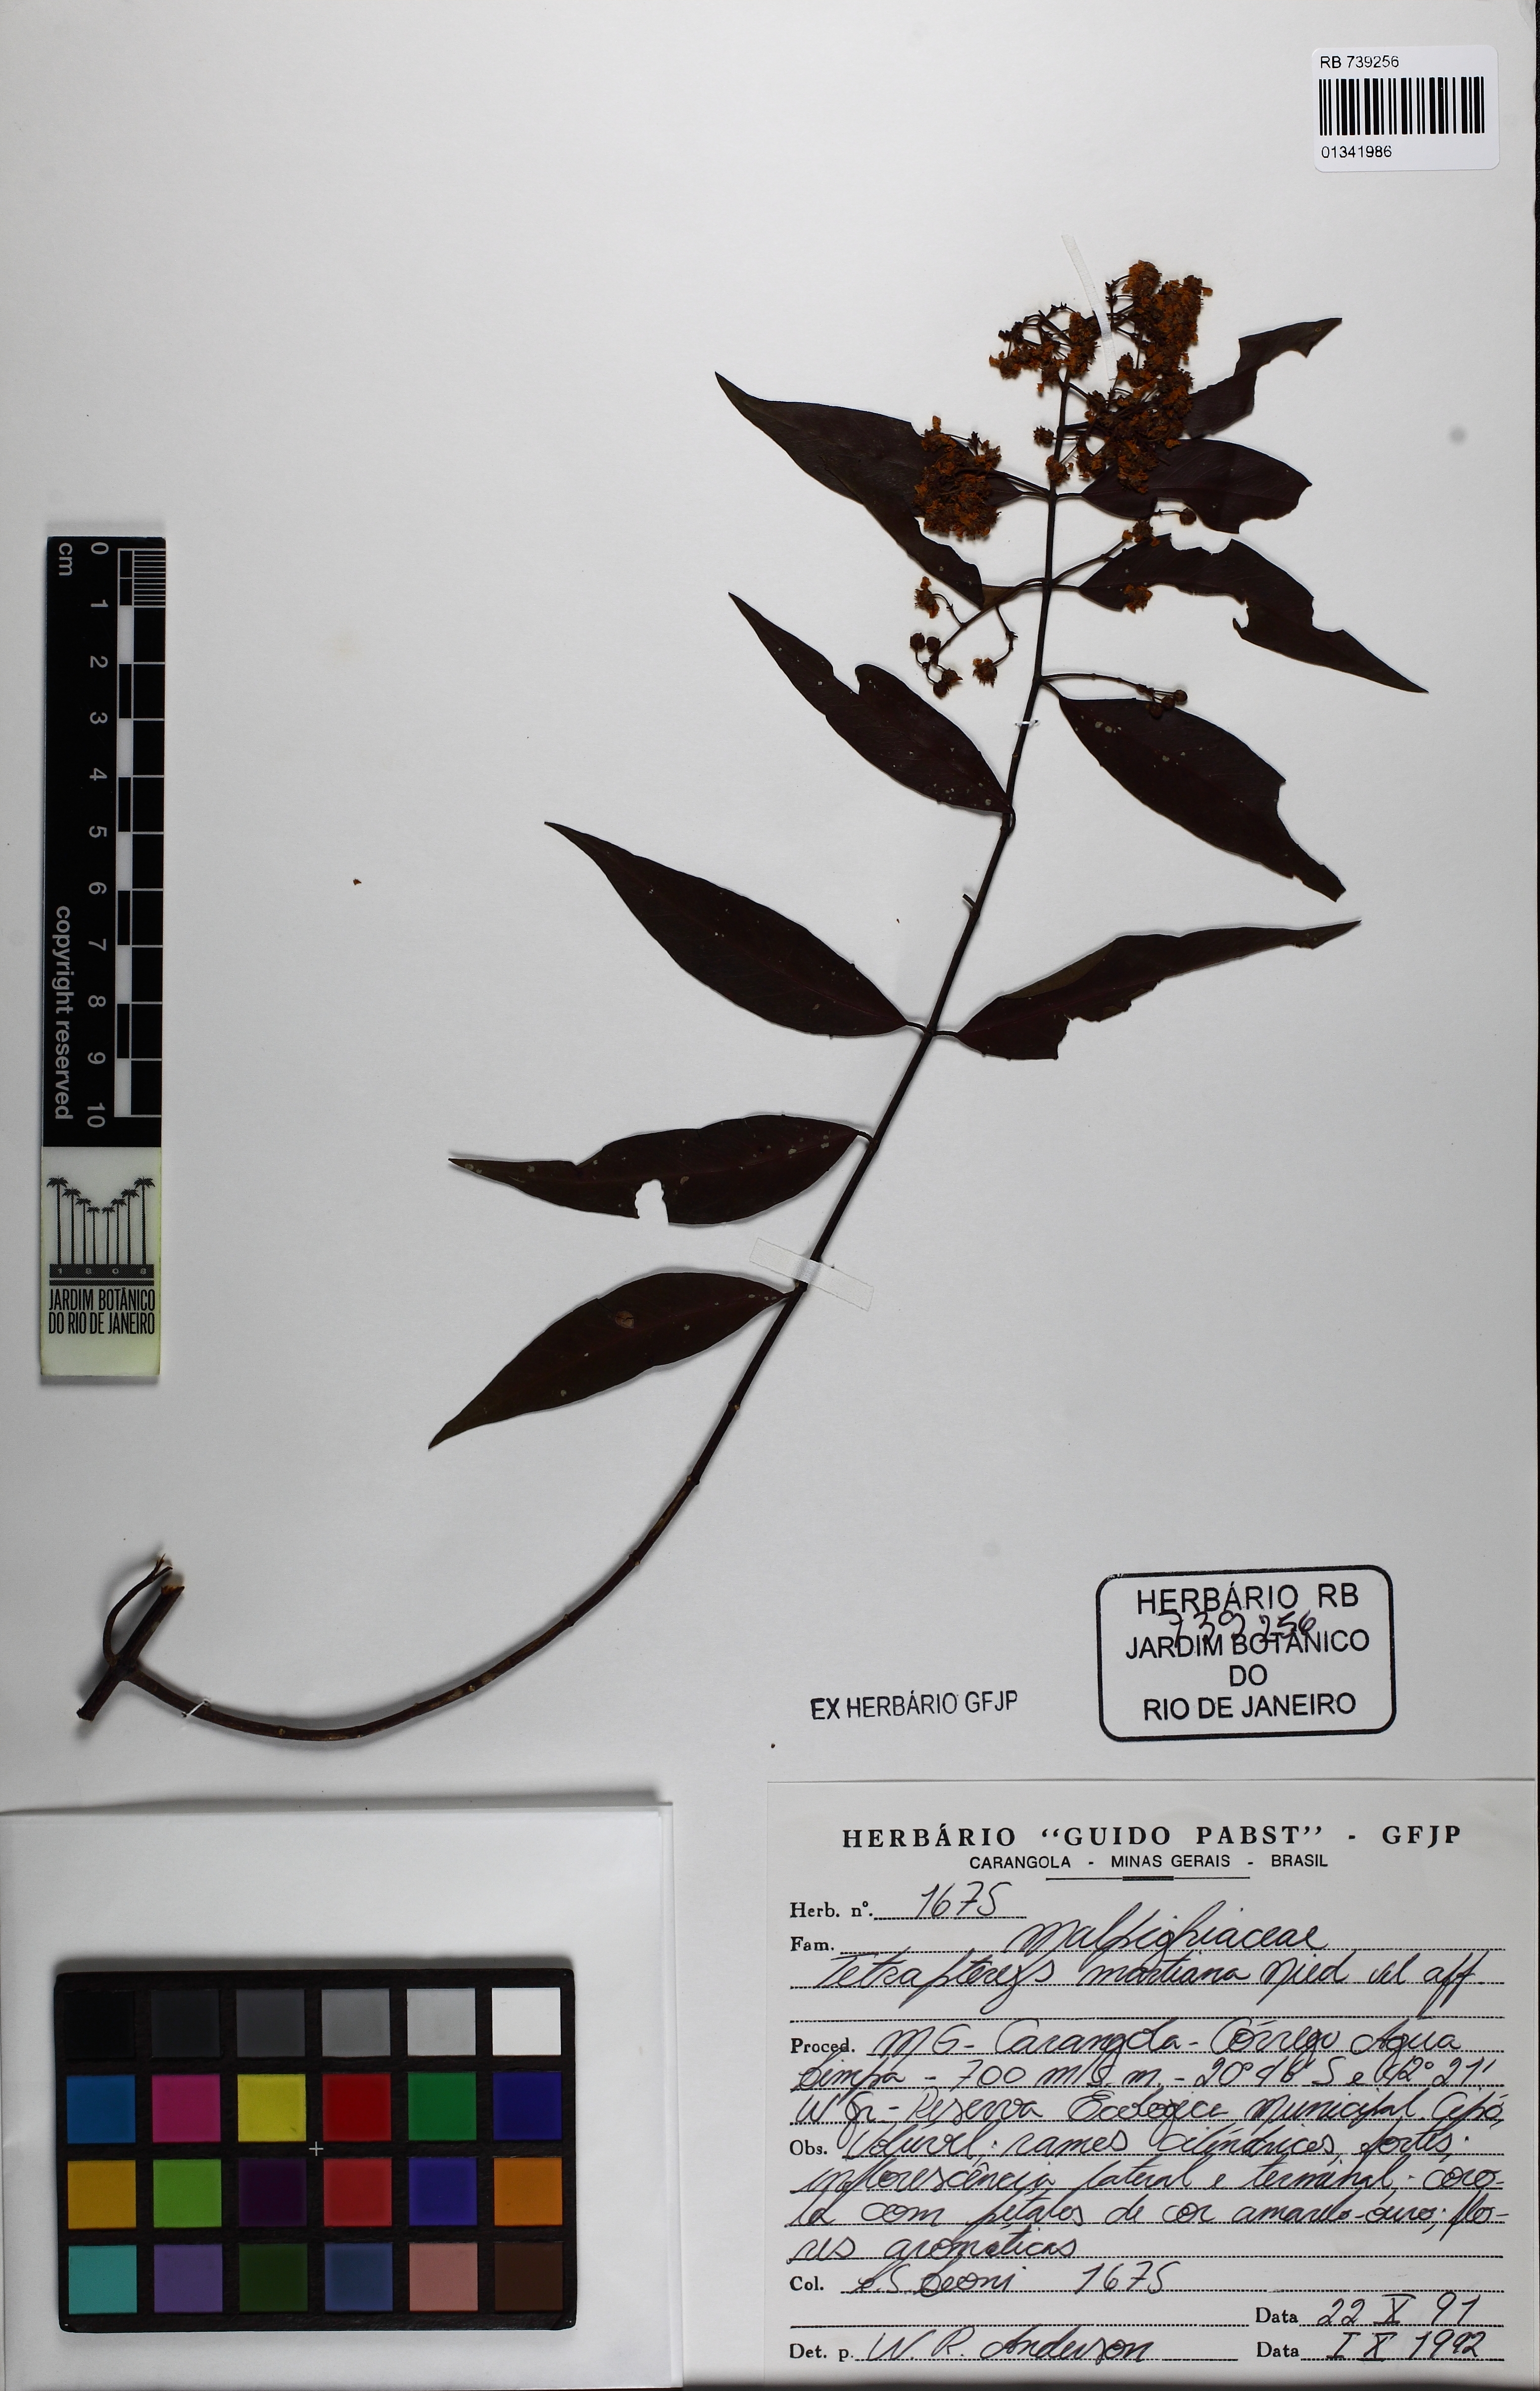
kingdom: Plantae
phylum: Tracheophyta
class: Magnoliopsida
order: Malpighiales
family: Malpighiaceae
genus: Niedenzuella
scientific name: Niedenzuella lucida
